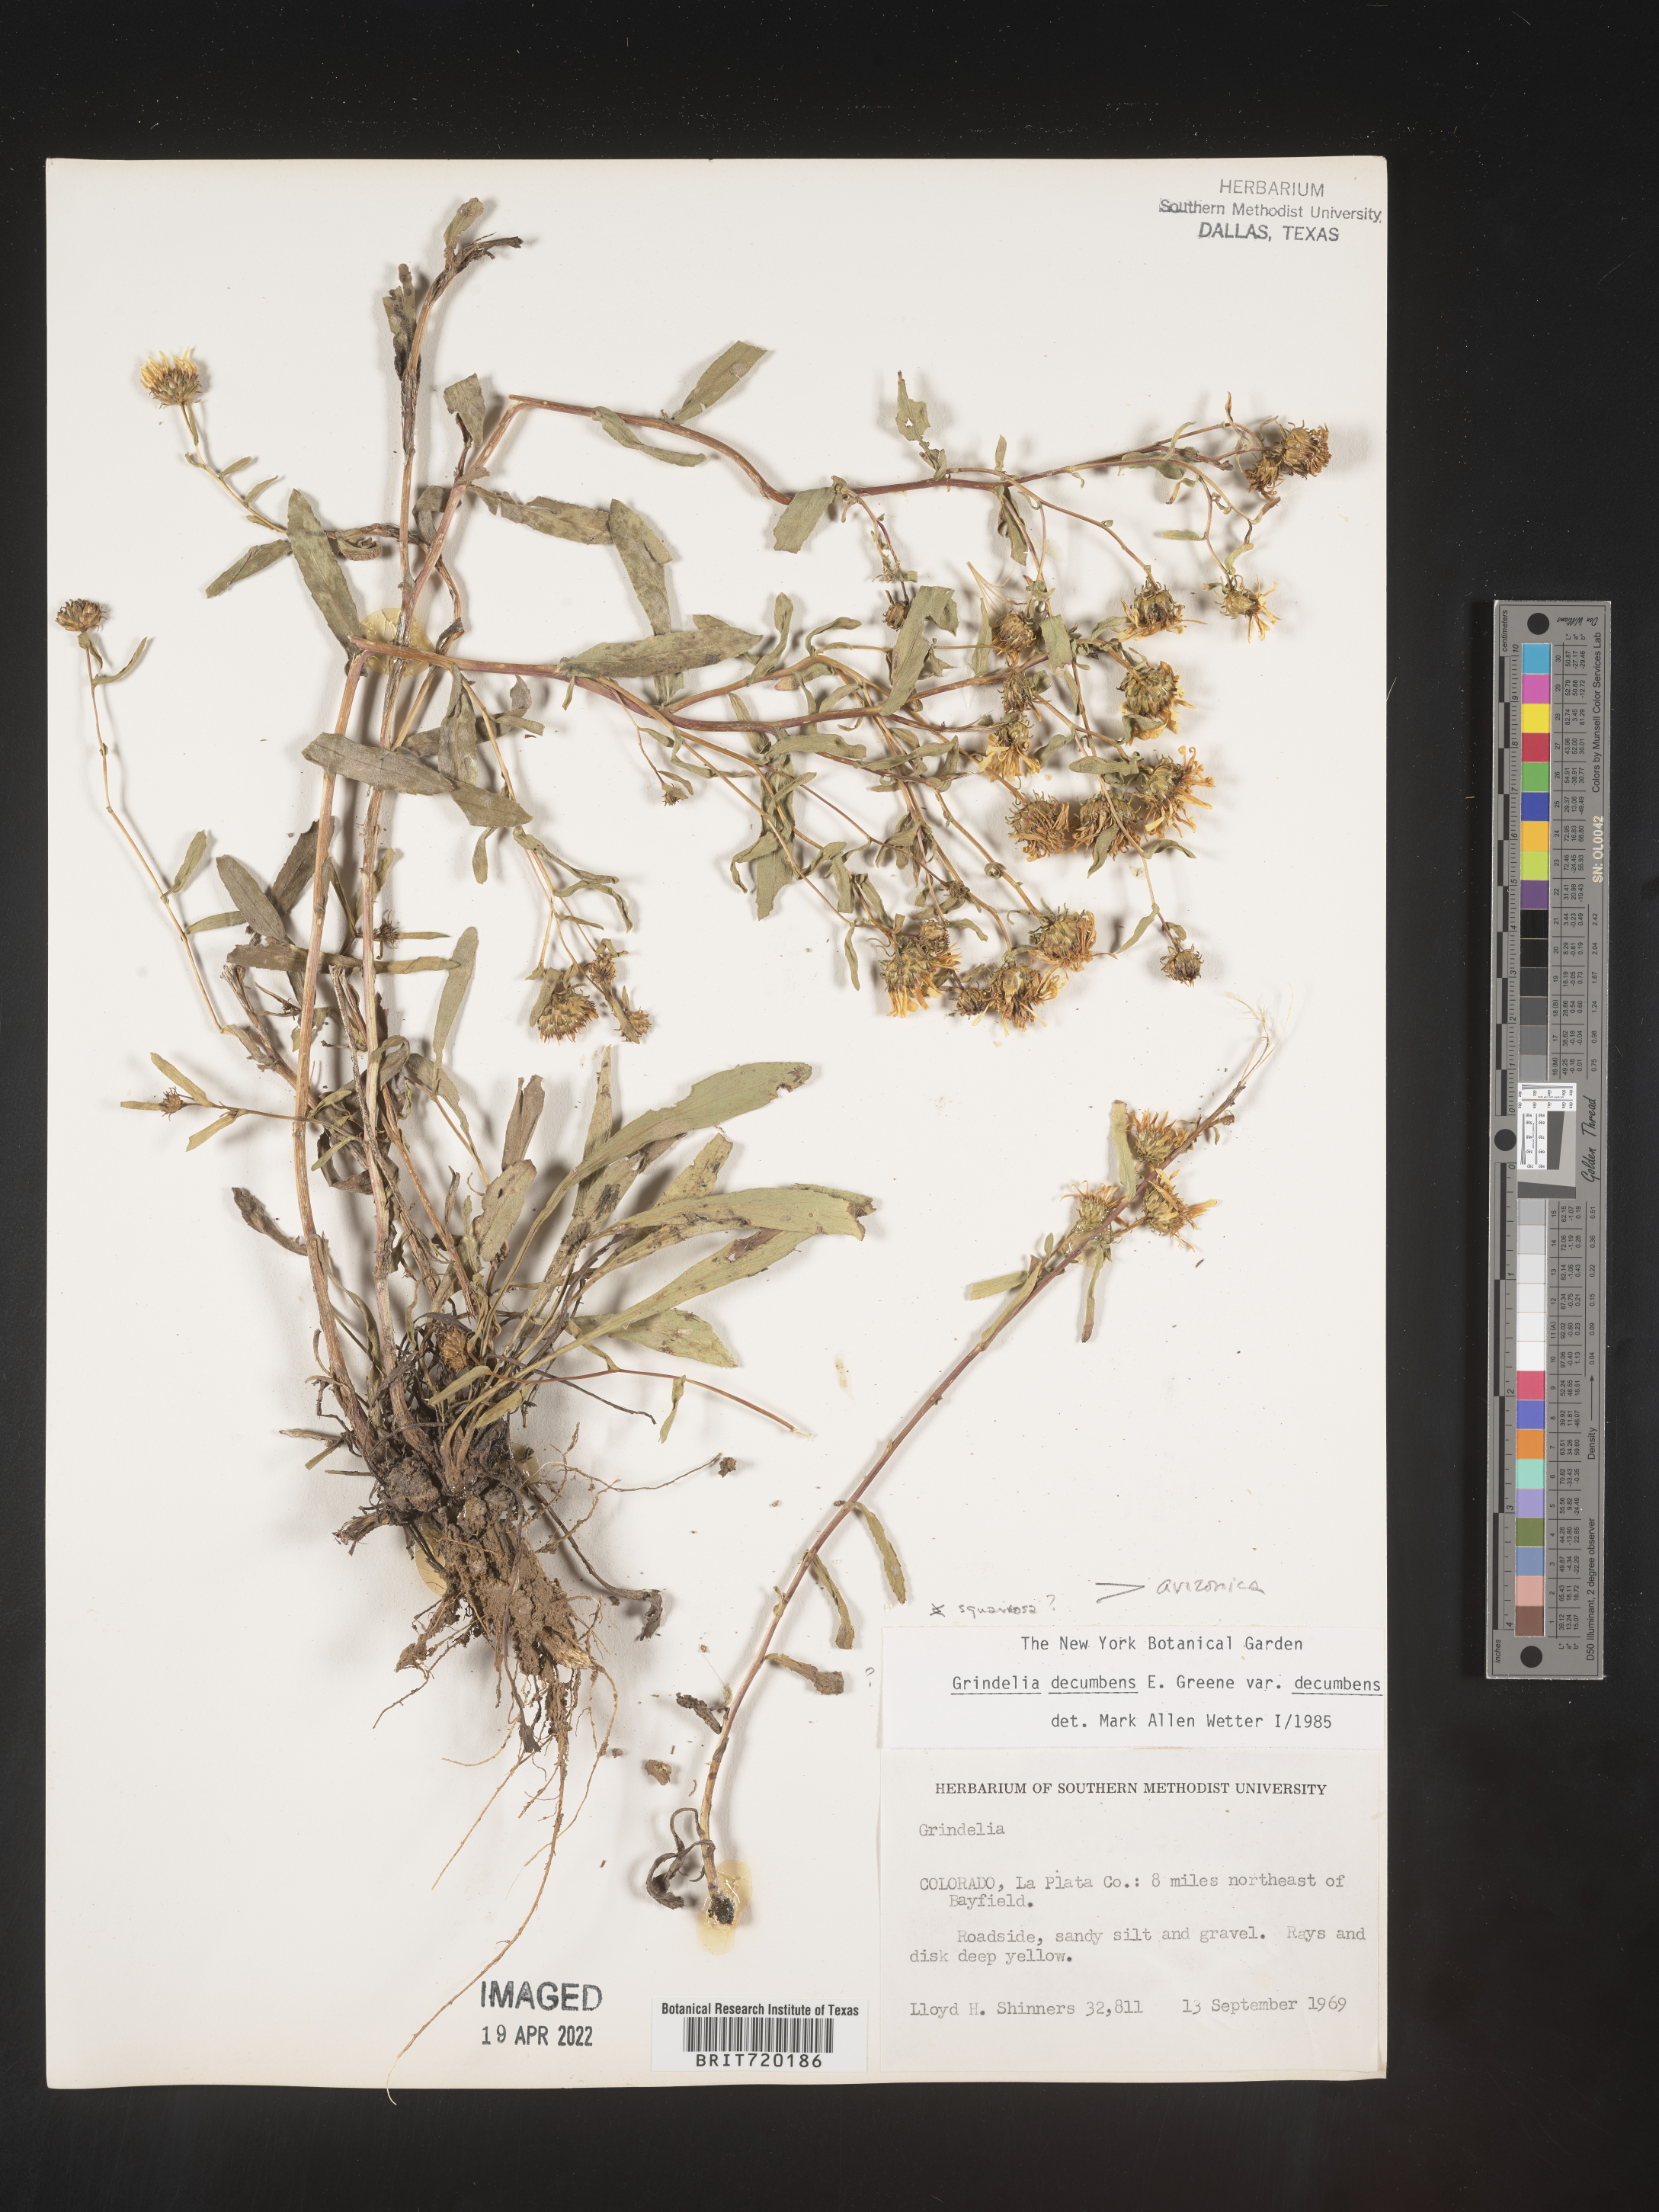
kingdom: Plantae
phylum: Tracheophyta
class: Magnoliopsida
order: Asterales
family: Asteraceae
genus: Grindelia
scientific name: Grindelia arizonica
